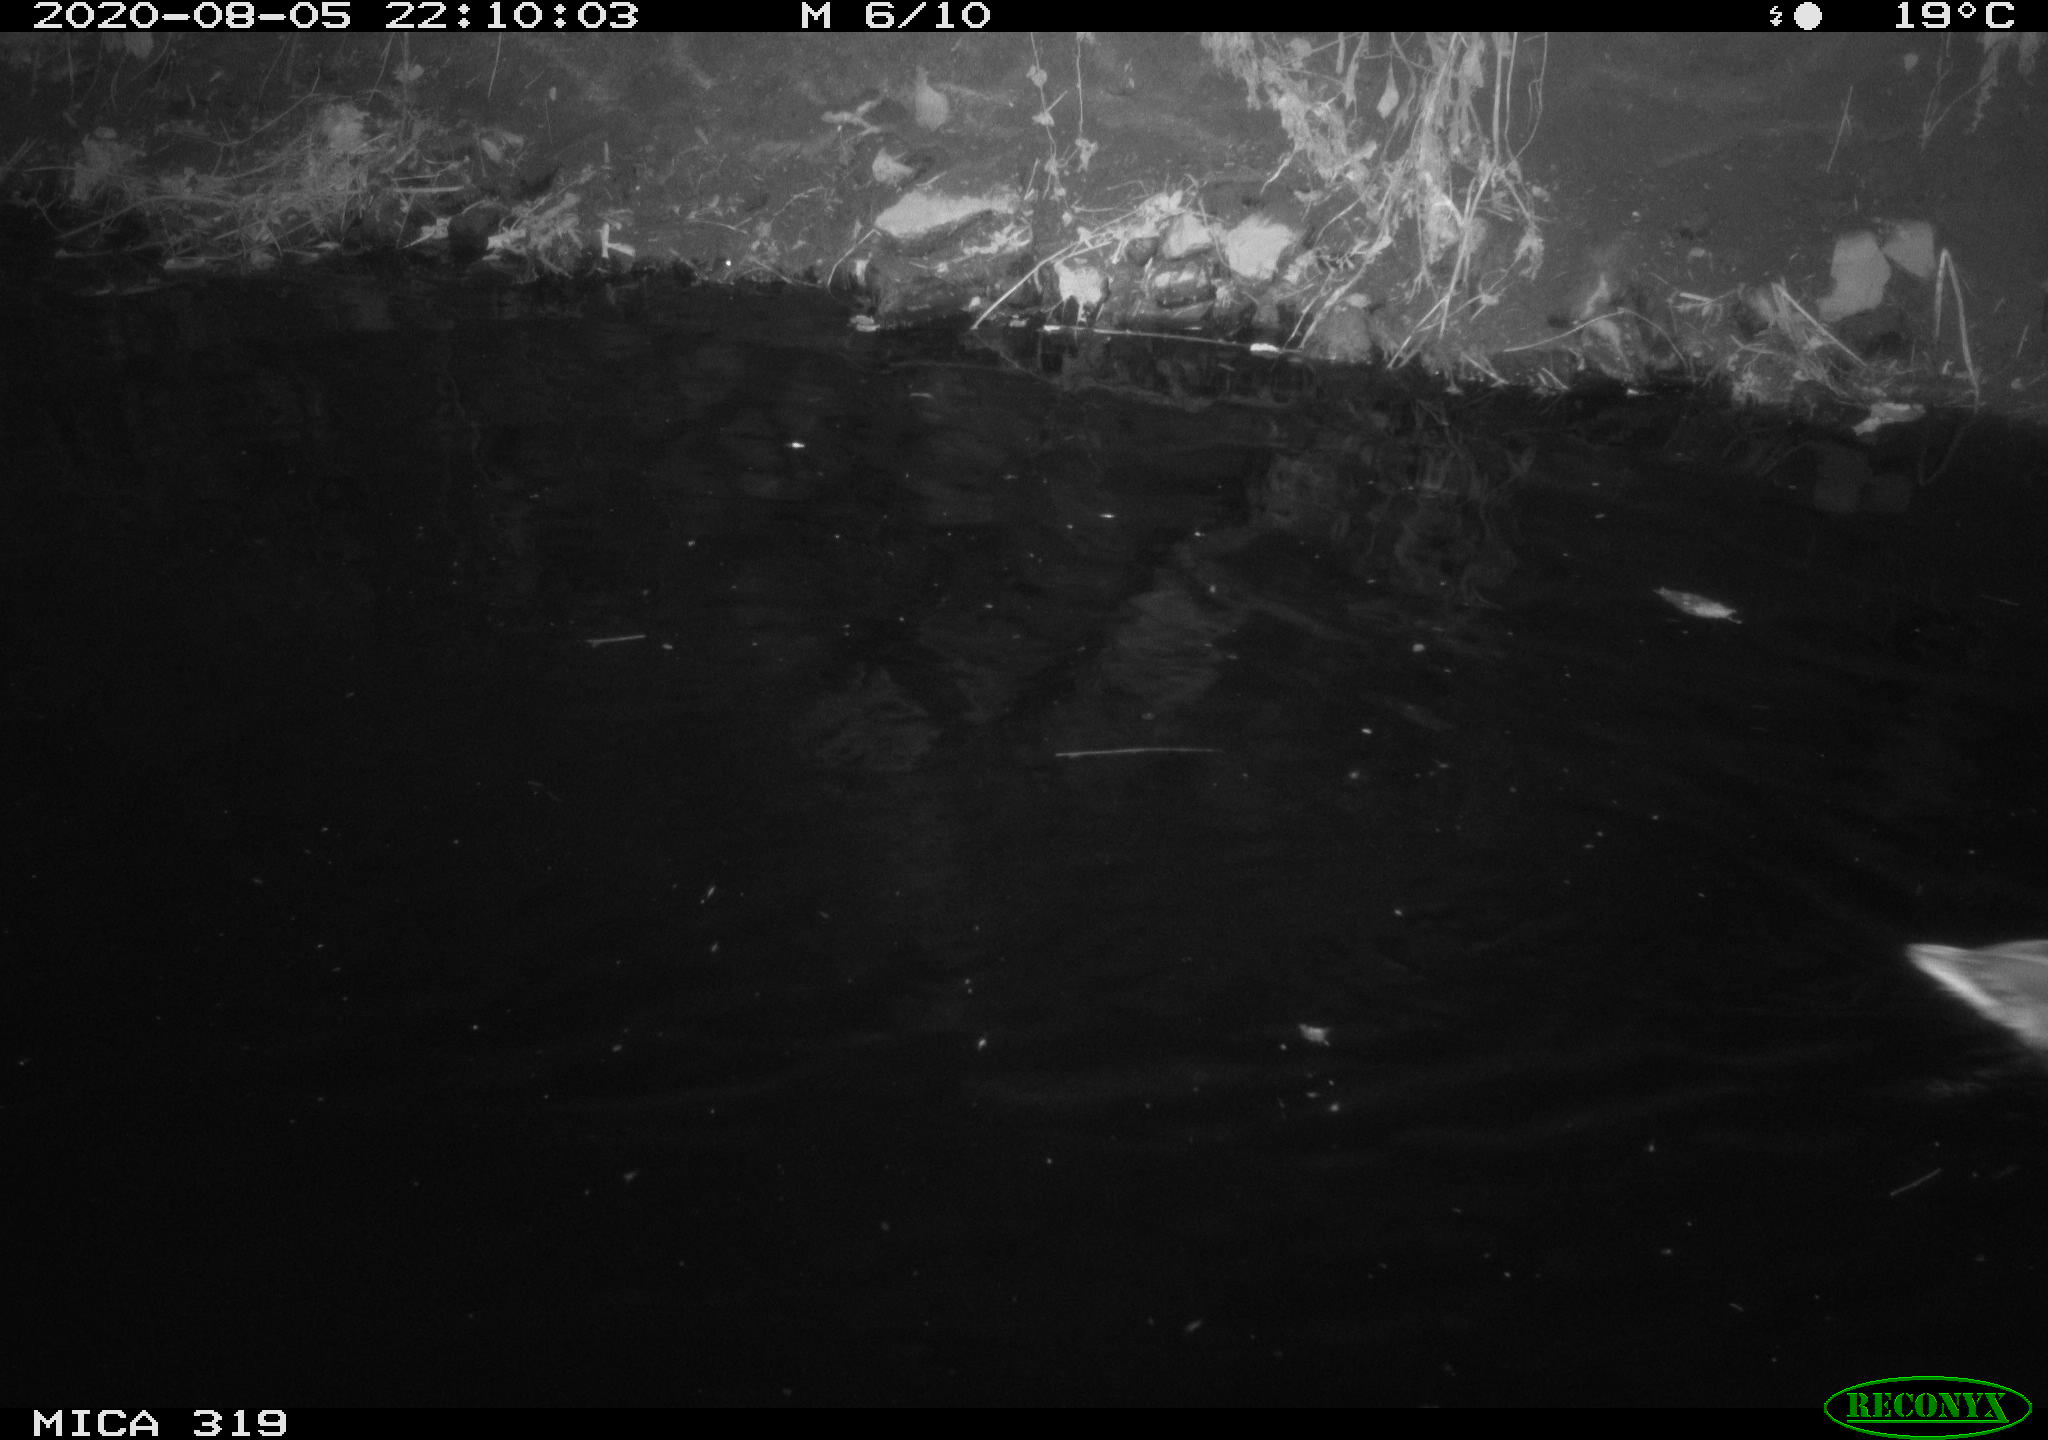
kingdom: Animalia
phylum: Chordata
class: Aves
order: Anseriformes
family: Anatidae
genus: Anas
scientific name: Anas platyrhynchos
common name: Mallard
